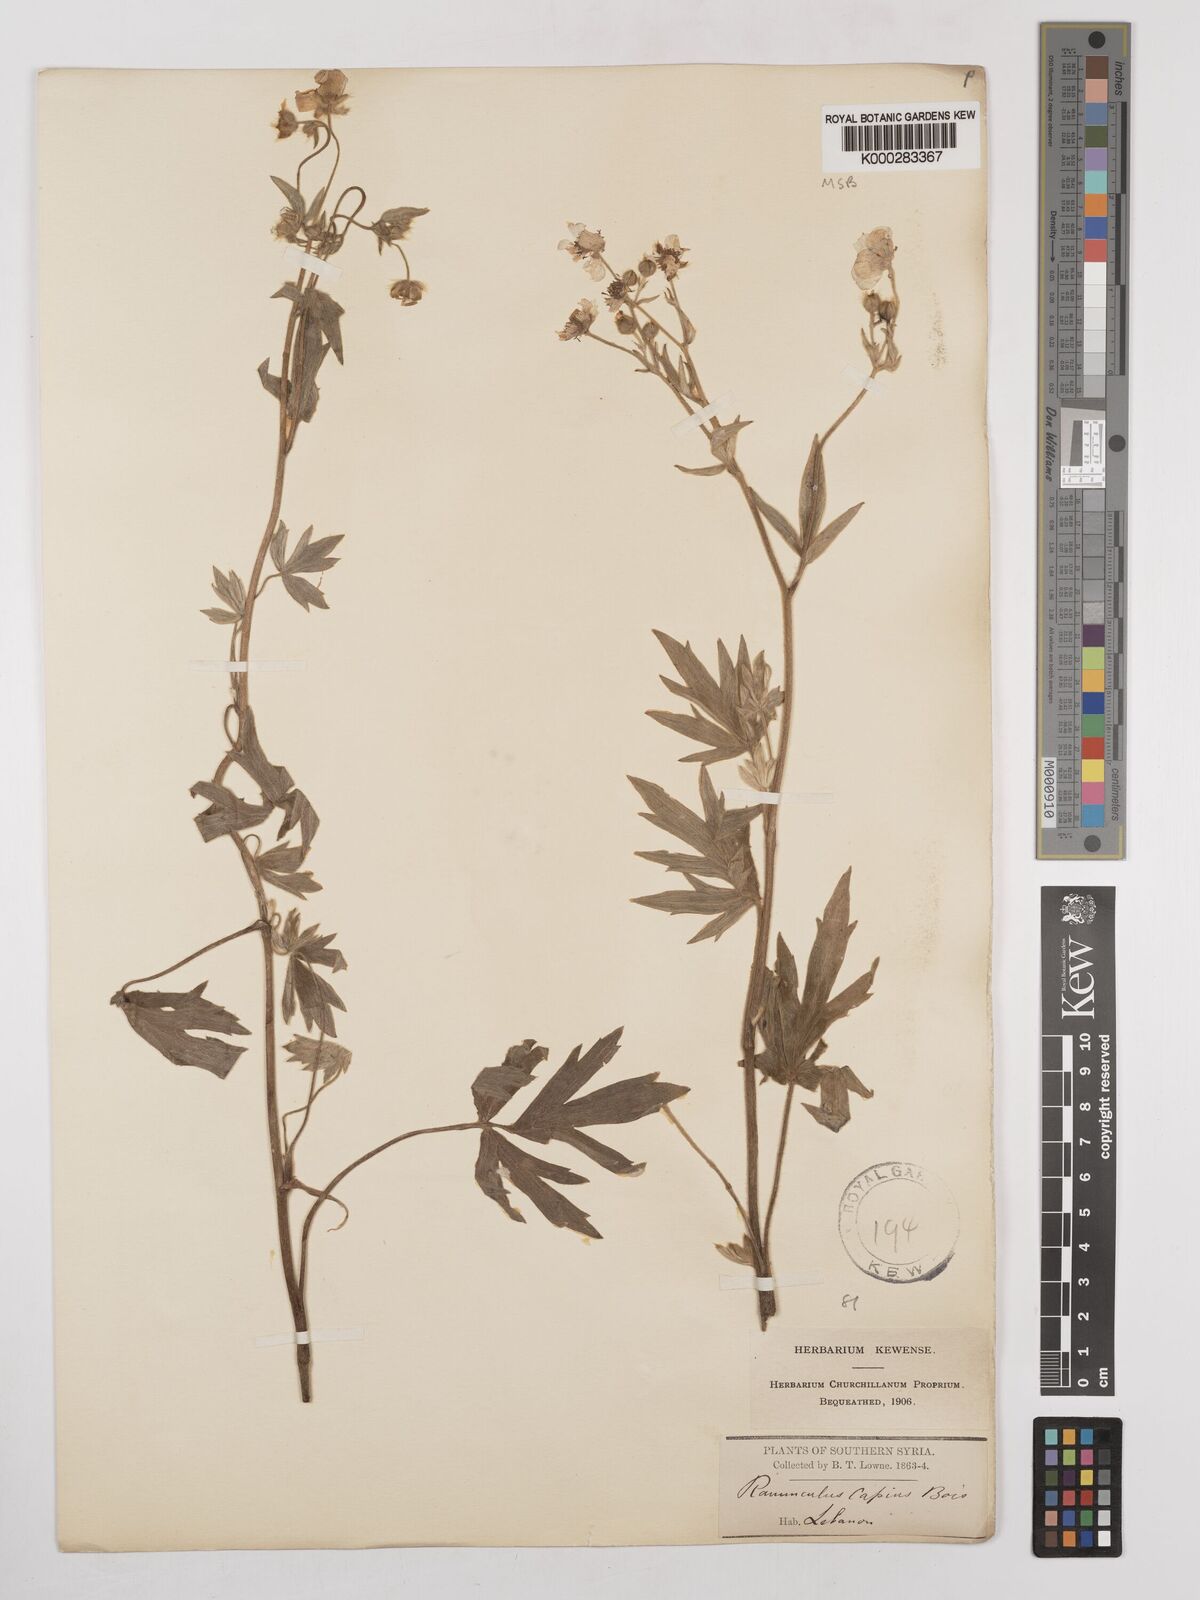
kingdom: Plantae
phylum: Tracheophyta
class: Magnoliopsida
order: Ranunculales
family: Ranunculaceae
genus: Ranunculus
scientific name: Ranunculus sericeus
